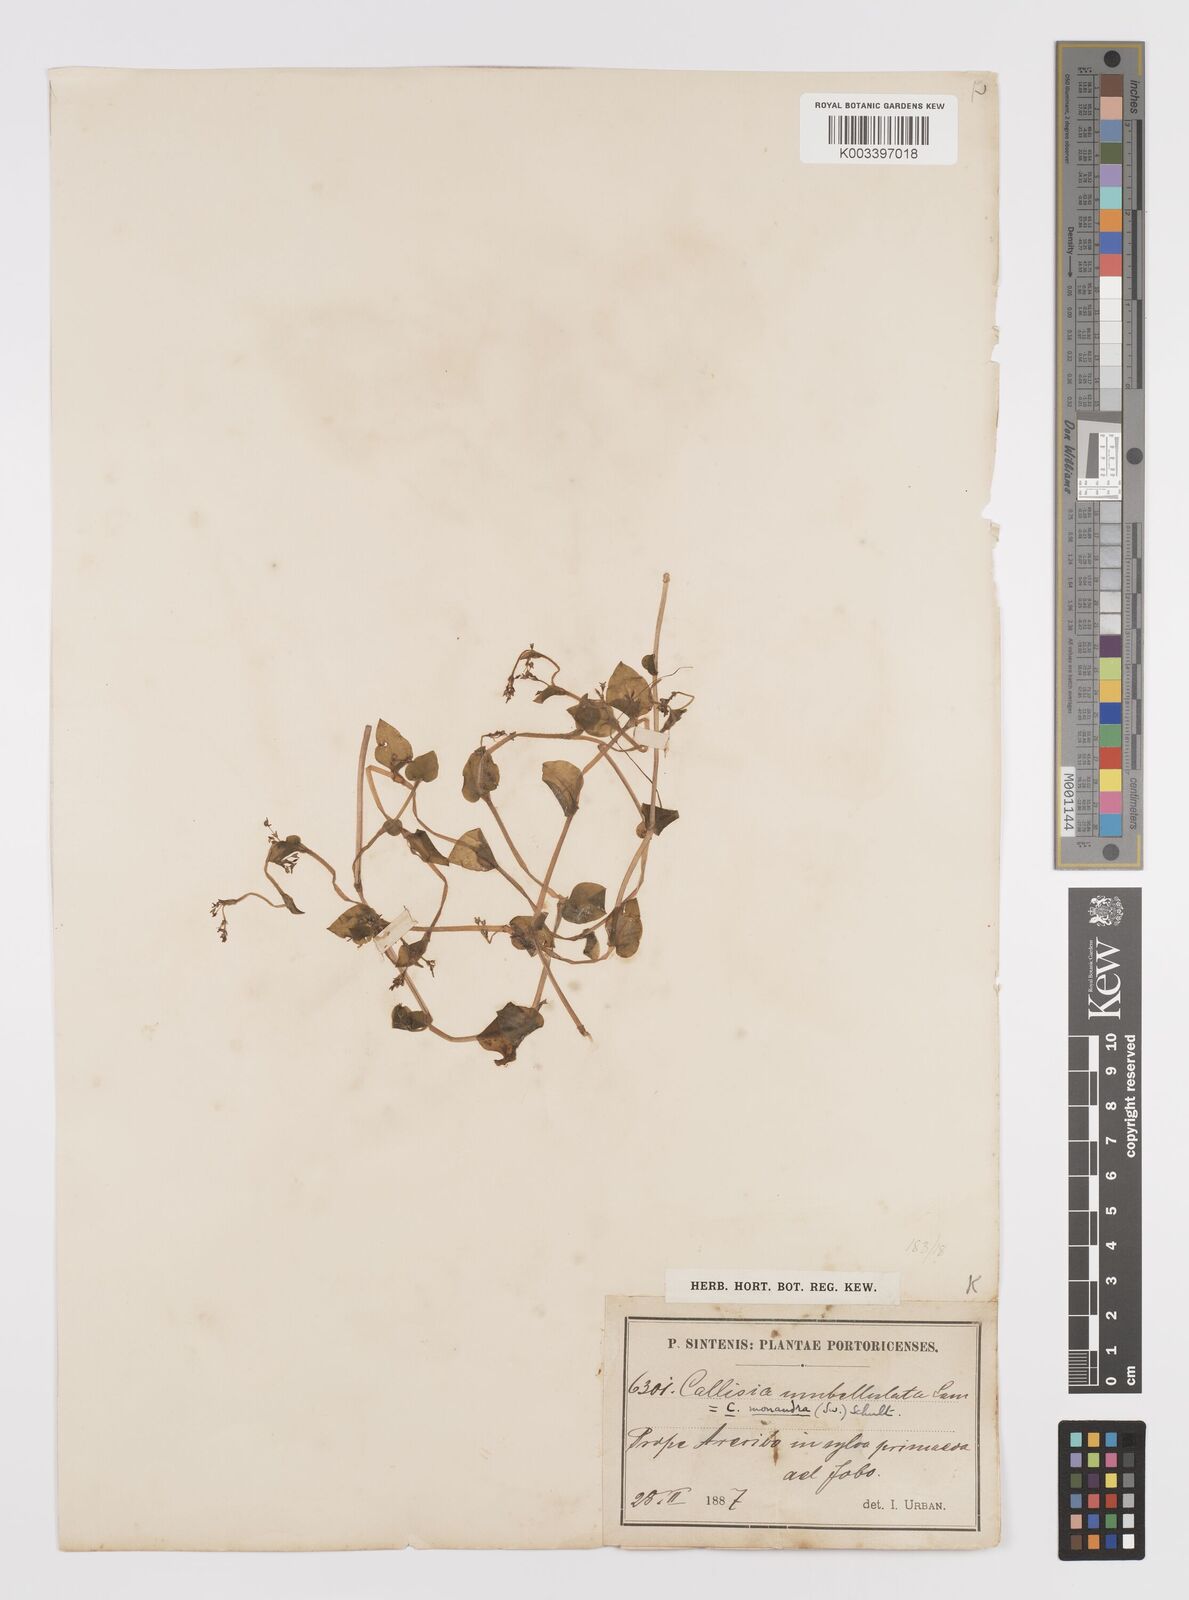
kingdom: Plantae
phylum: Tracheophyta
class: Liliopsida
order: Commelinales
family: Commelinaceae
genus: Callisia
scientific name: Callisia monandra
